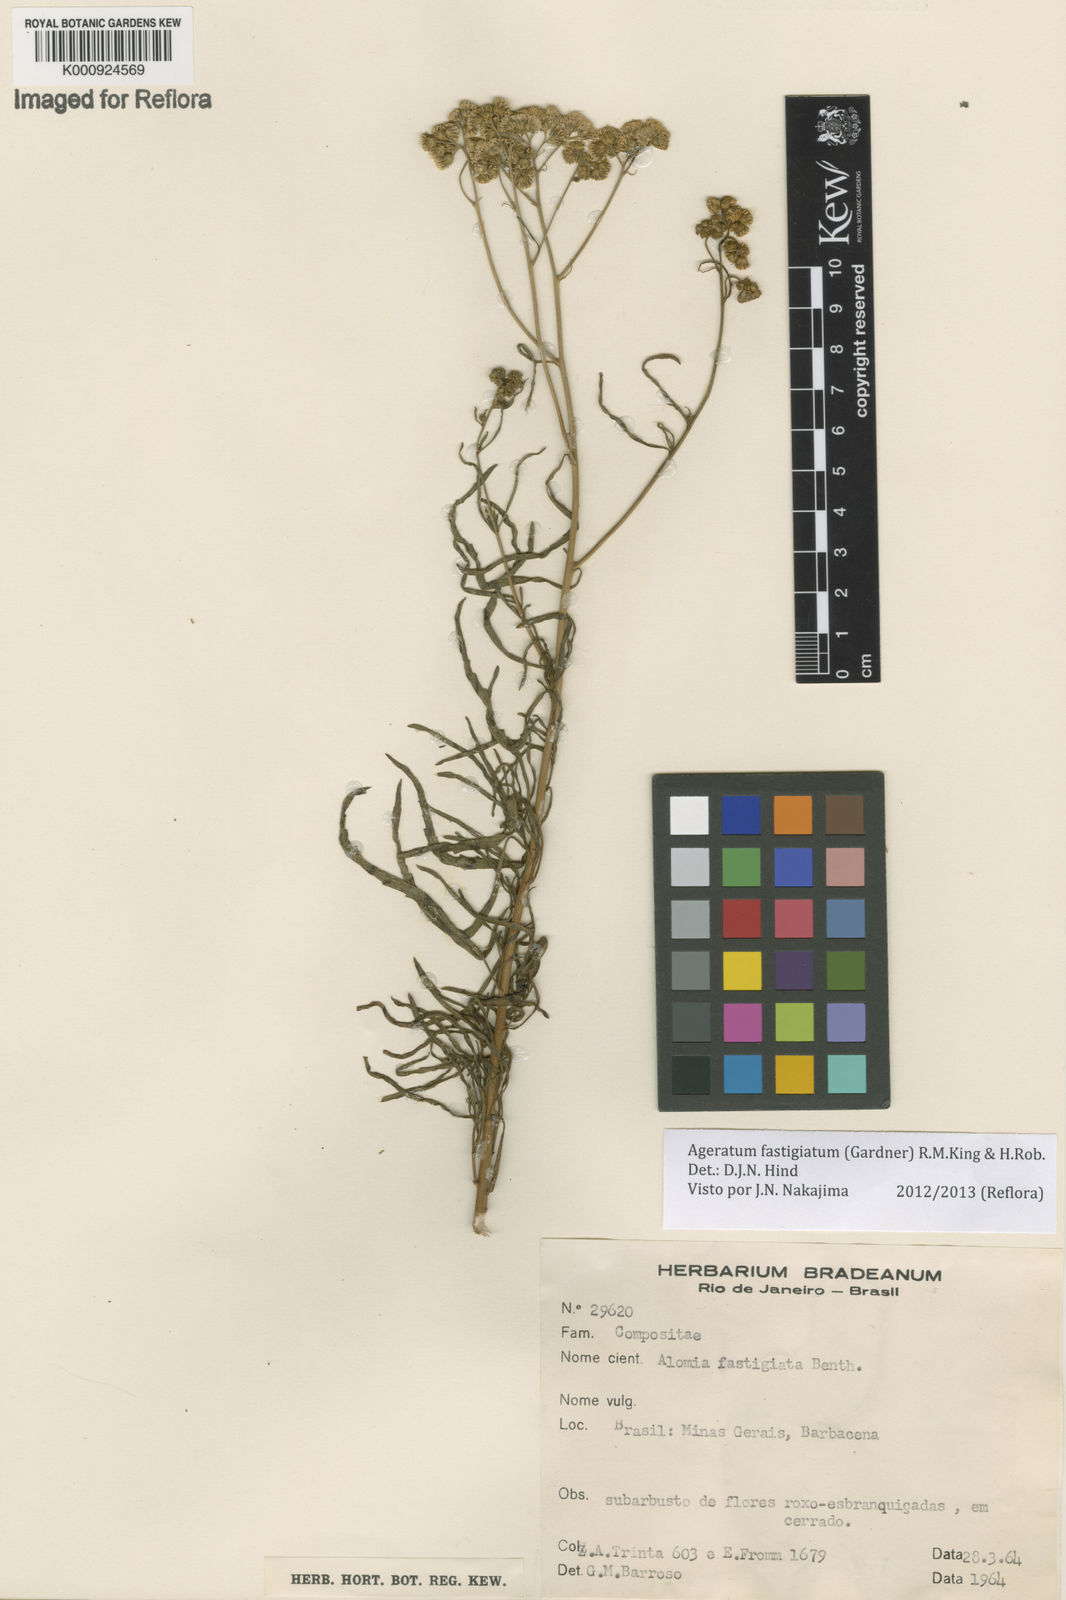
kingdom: Plantae
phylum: Tracheophyta
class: Magnoliopsida
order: Asterales
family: Asteraceae
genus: Ageratum
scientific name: Ageratum fastigiatum
